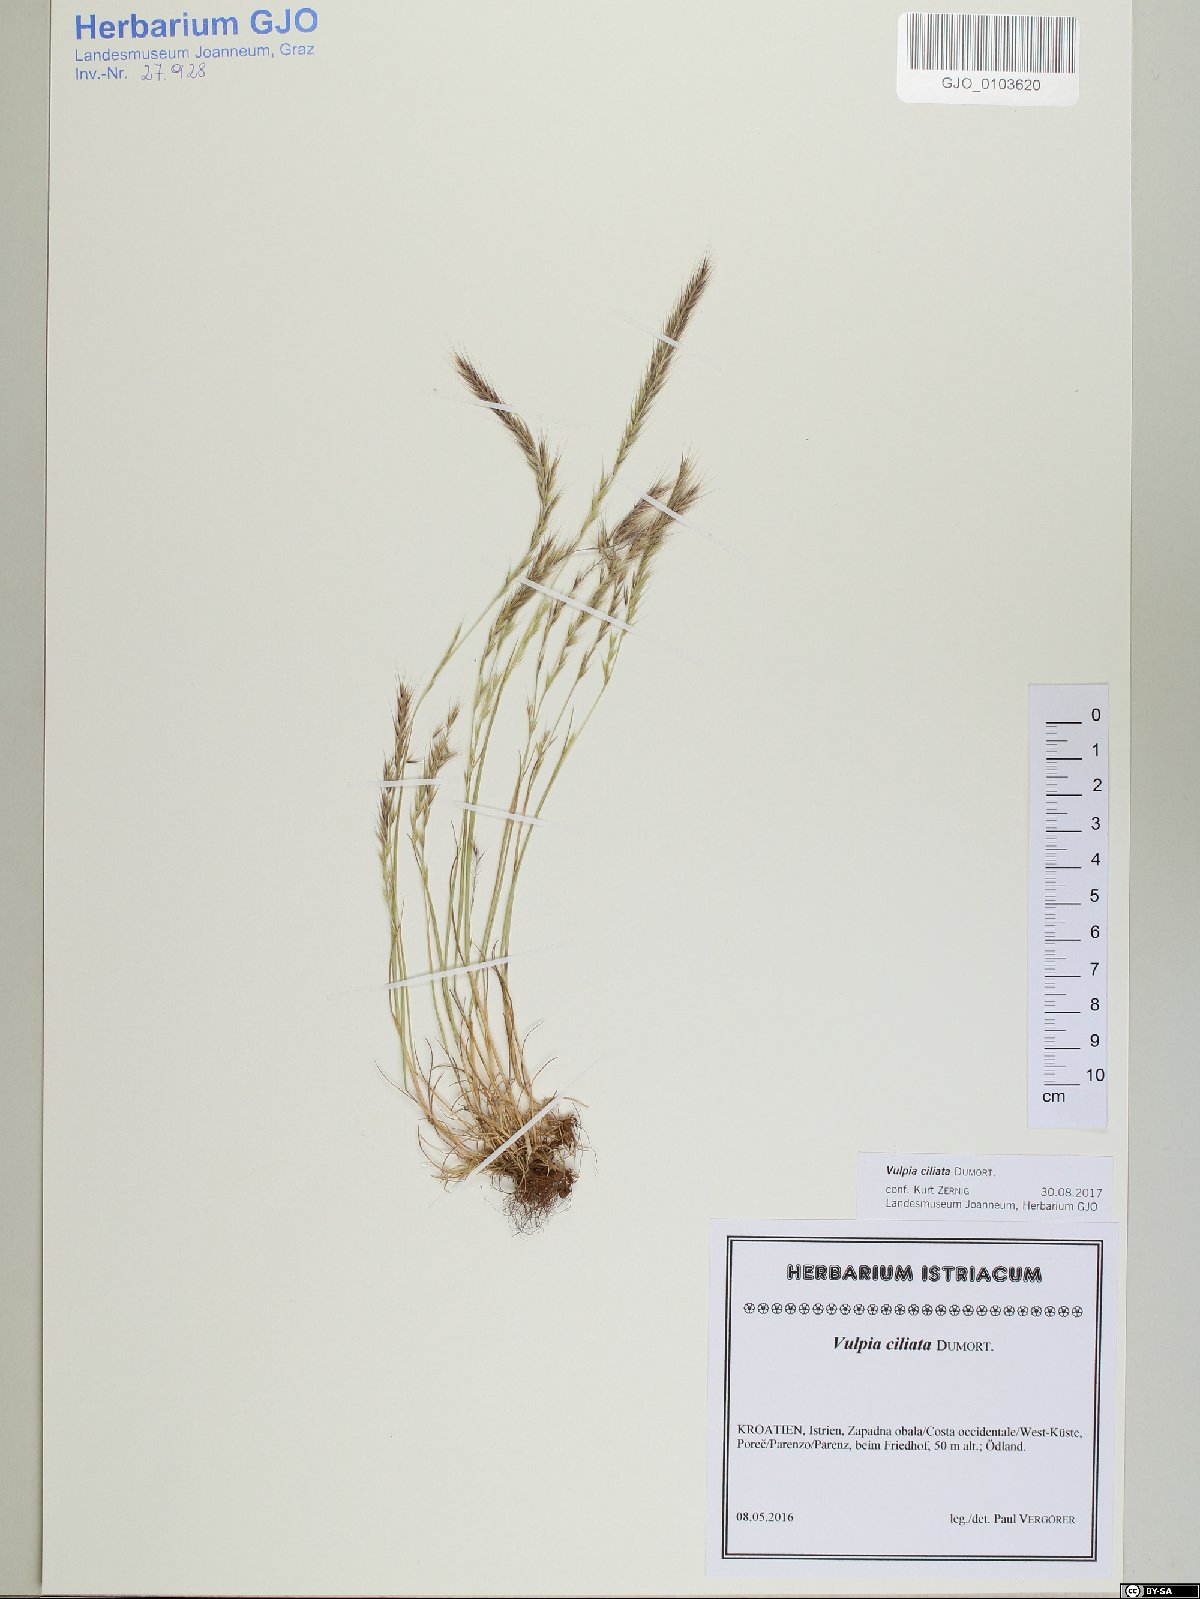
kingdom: Plantae
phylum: Tracheophyta
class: Liliopsida
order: Poales
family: Poaceae
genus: Festuca
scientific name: Festuca ambigua
